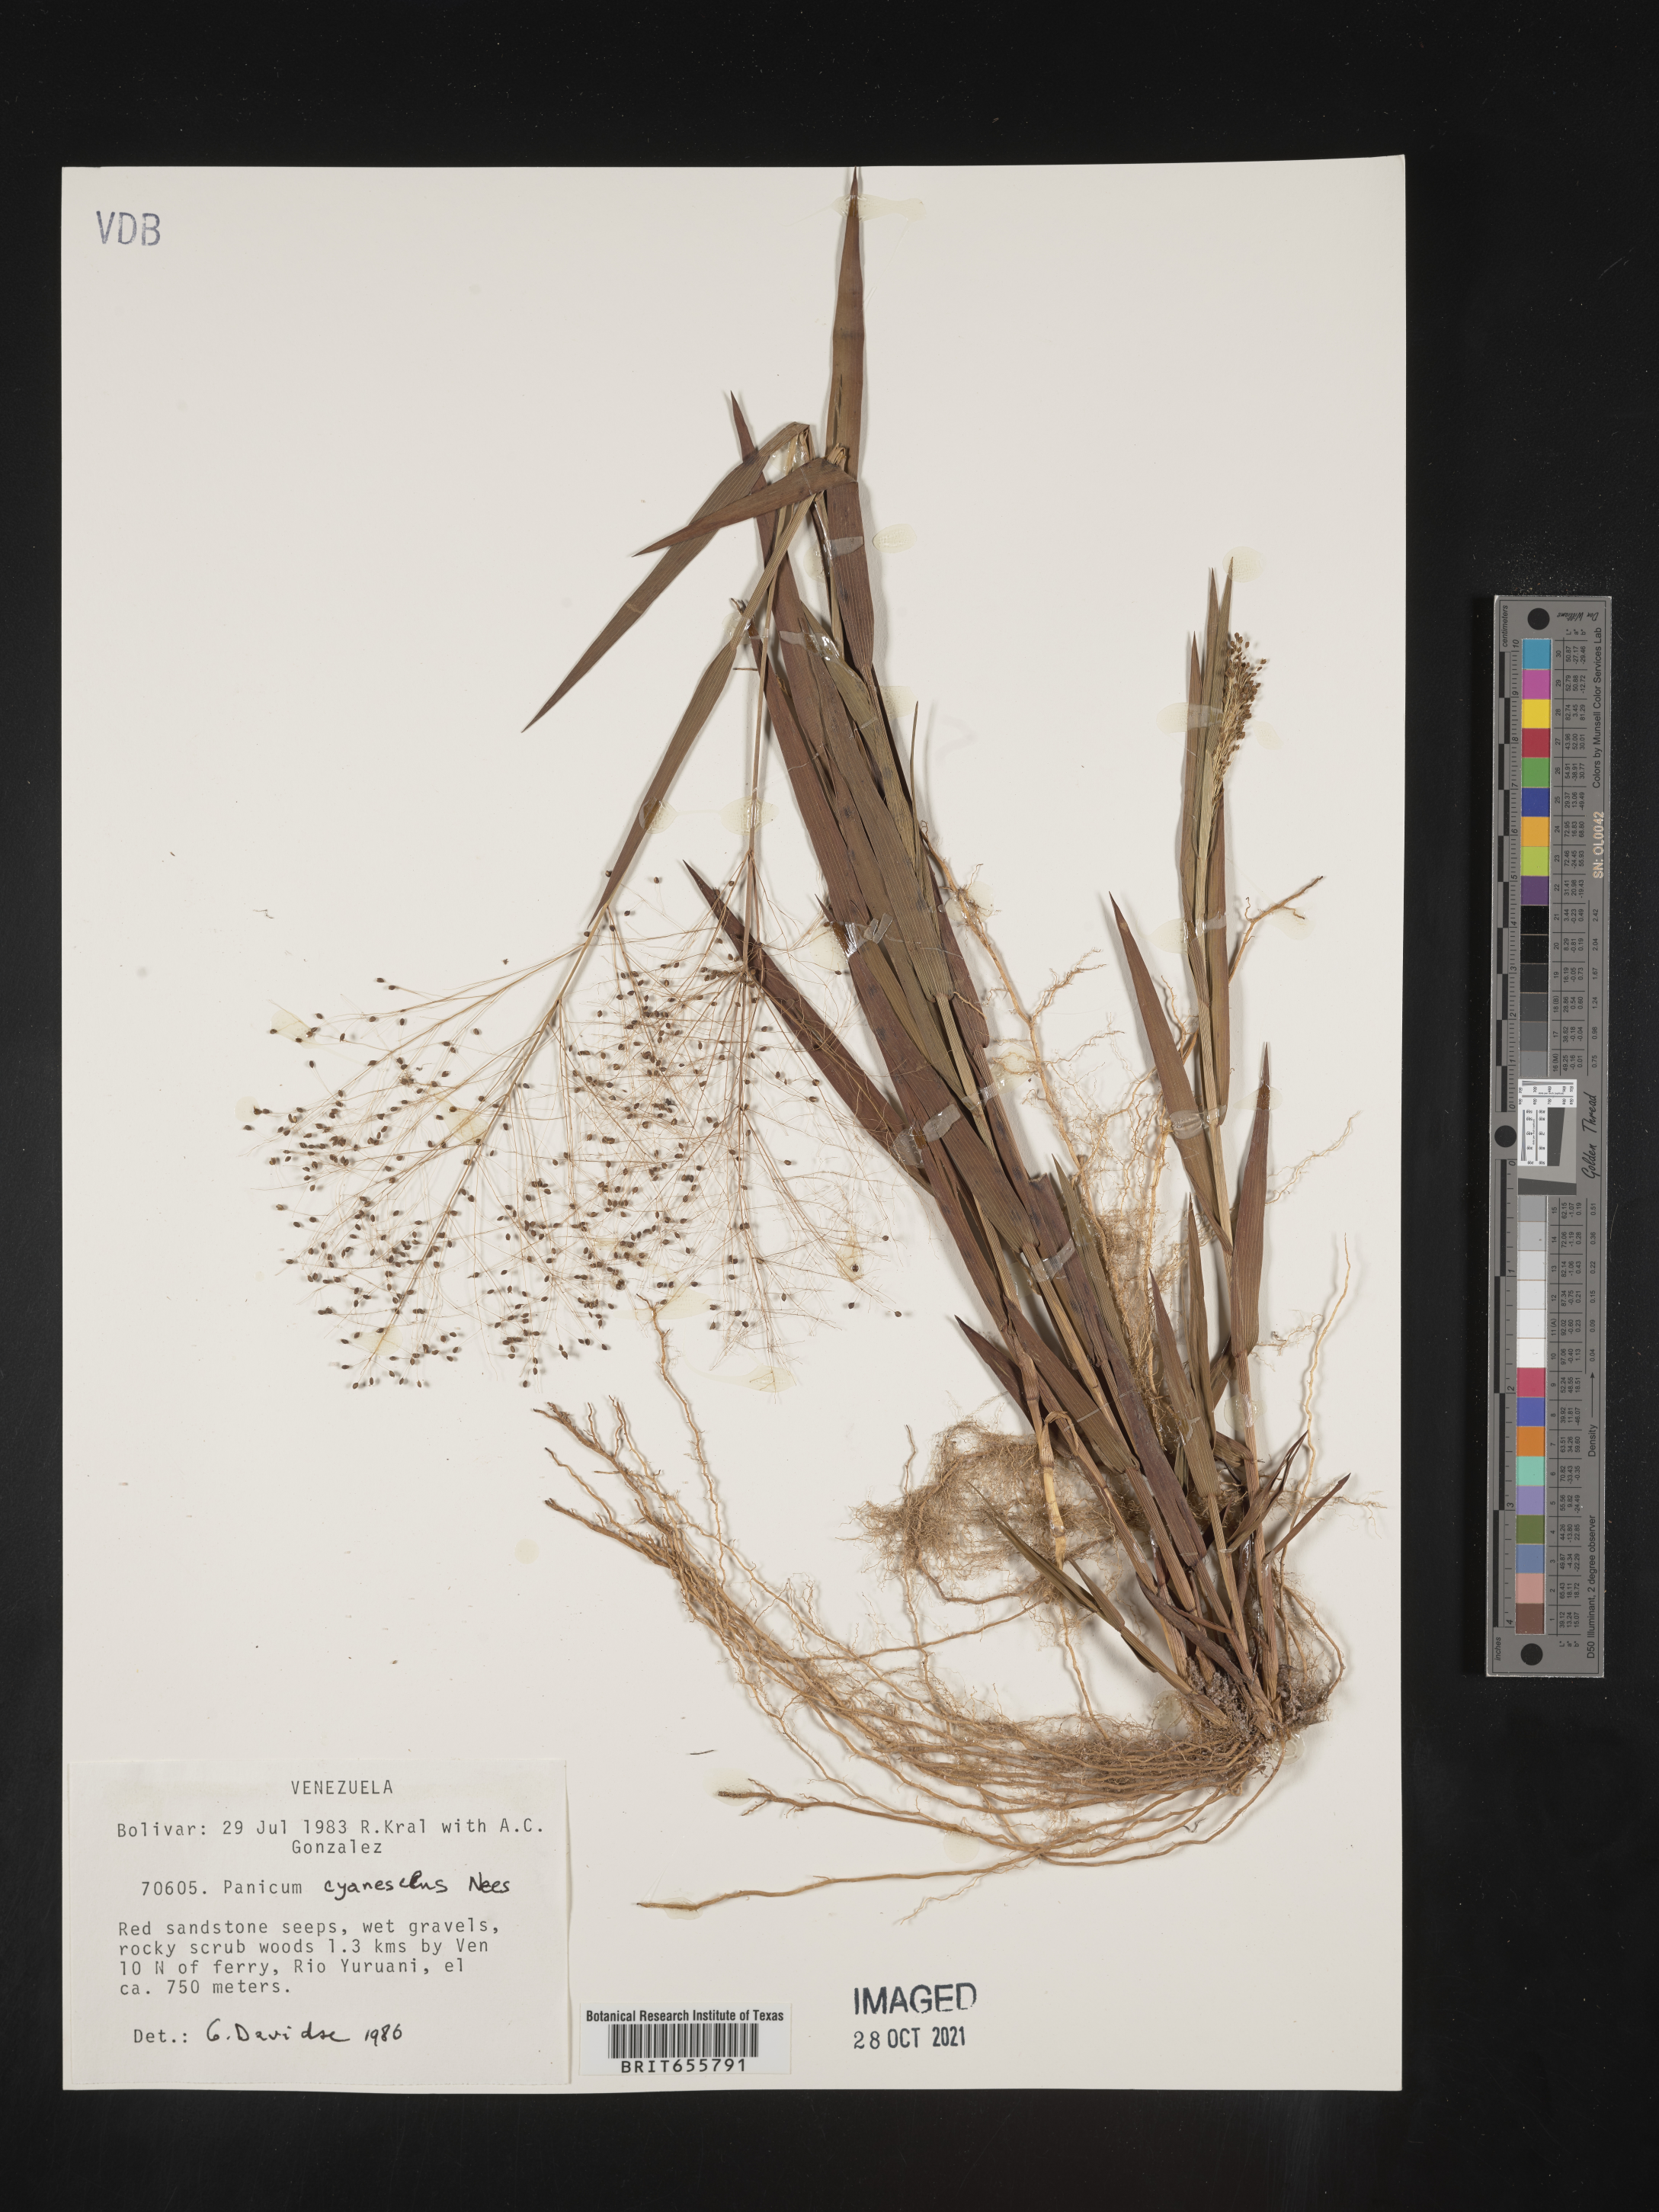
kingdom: Plantae
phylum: Tracheophyta
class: Liliopsida
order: Poales
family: Poaceae
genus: Panicum
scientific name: Panicum
